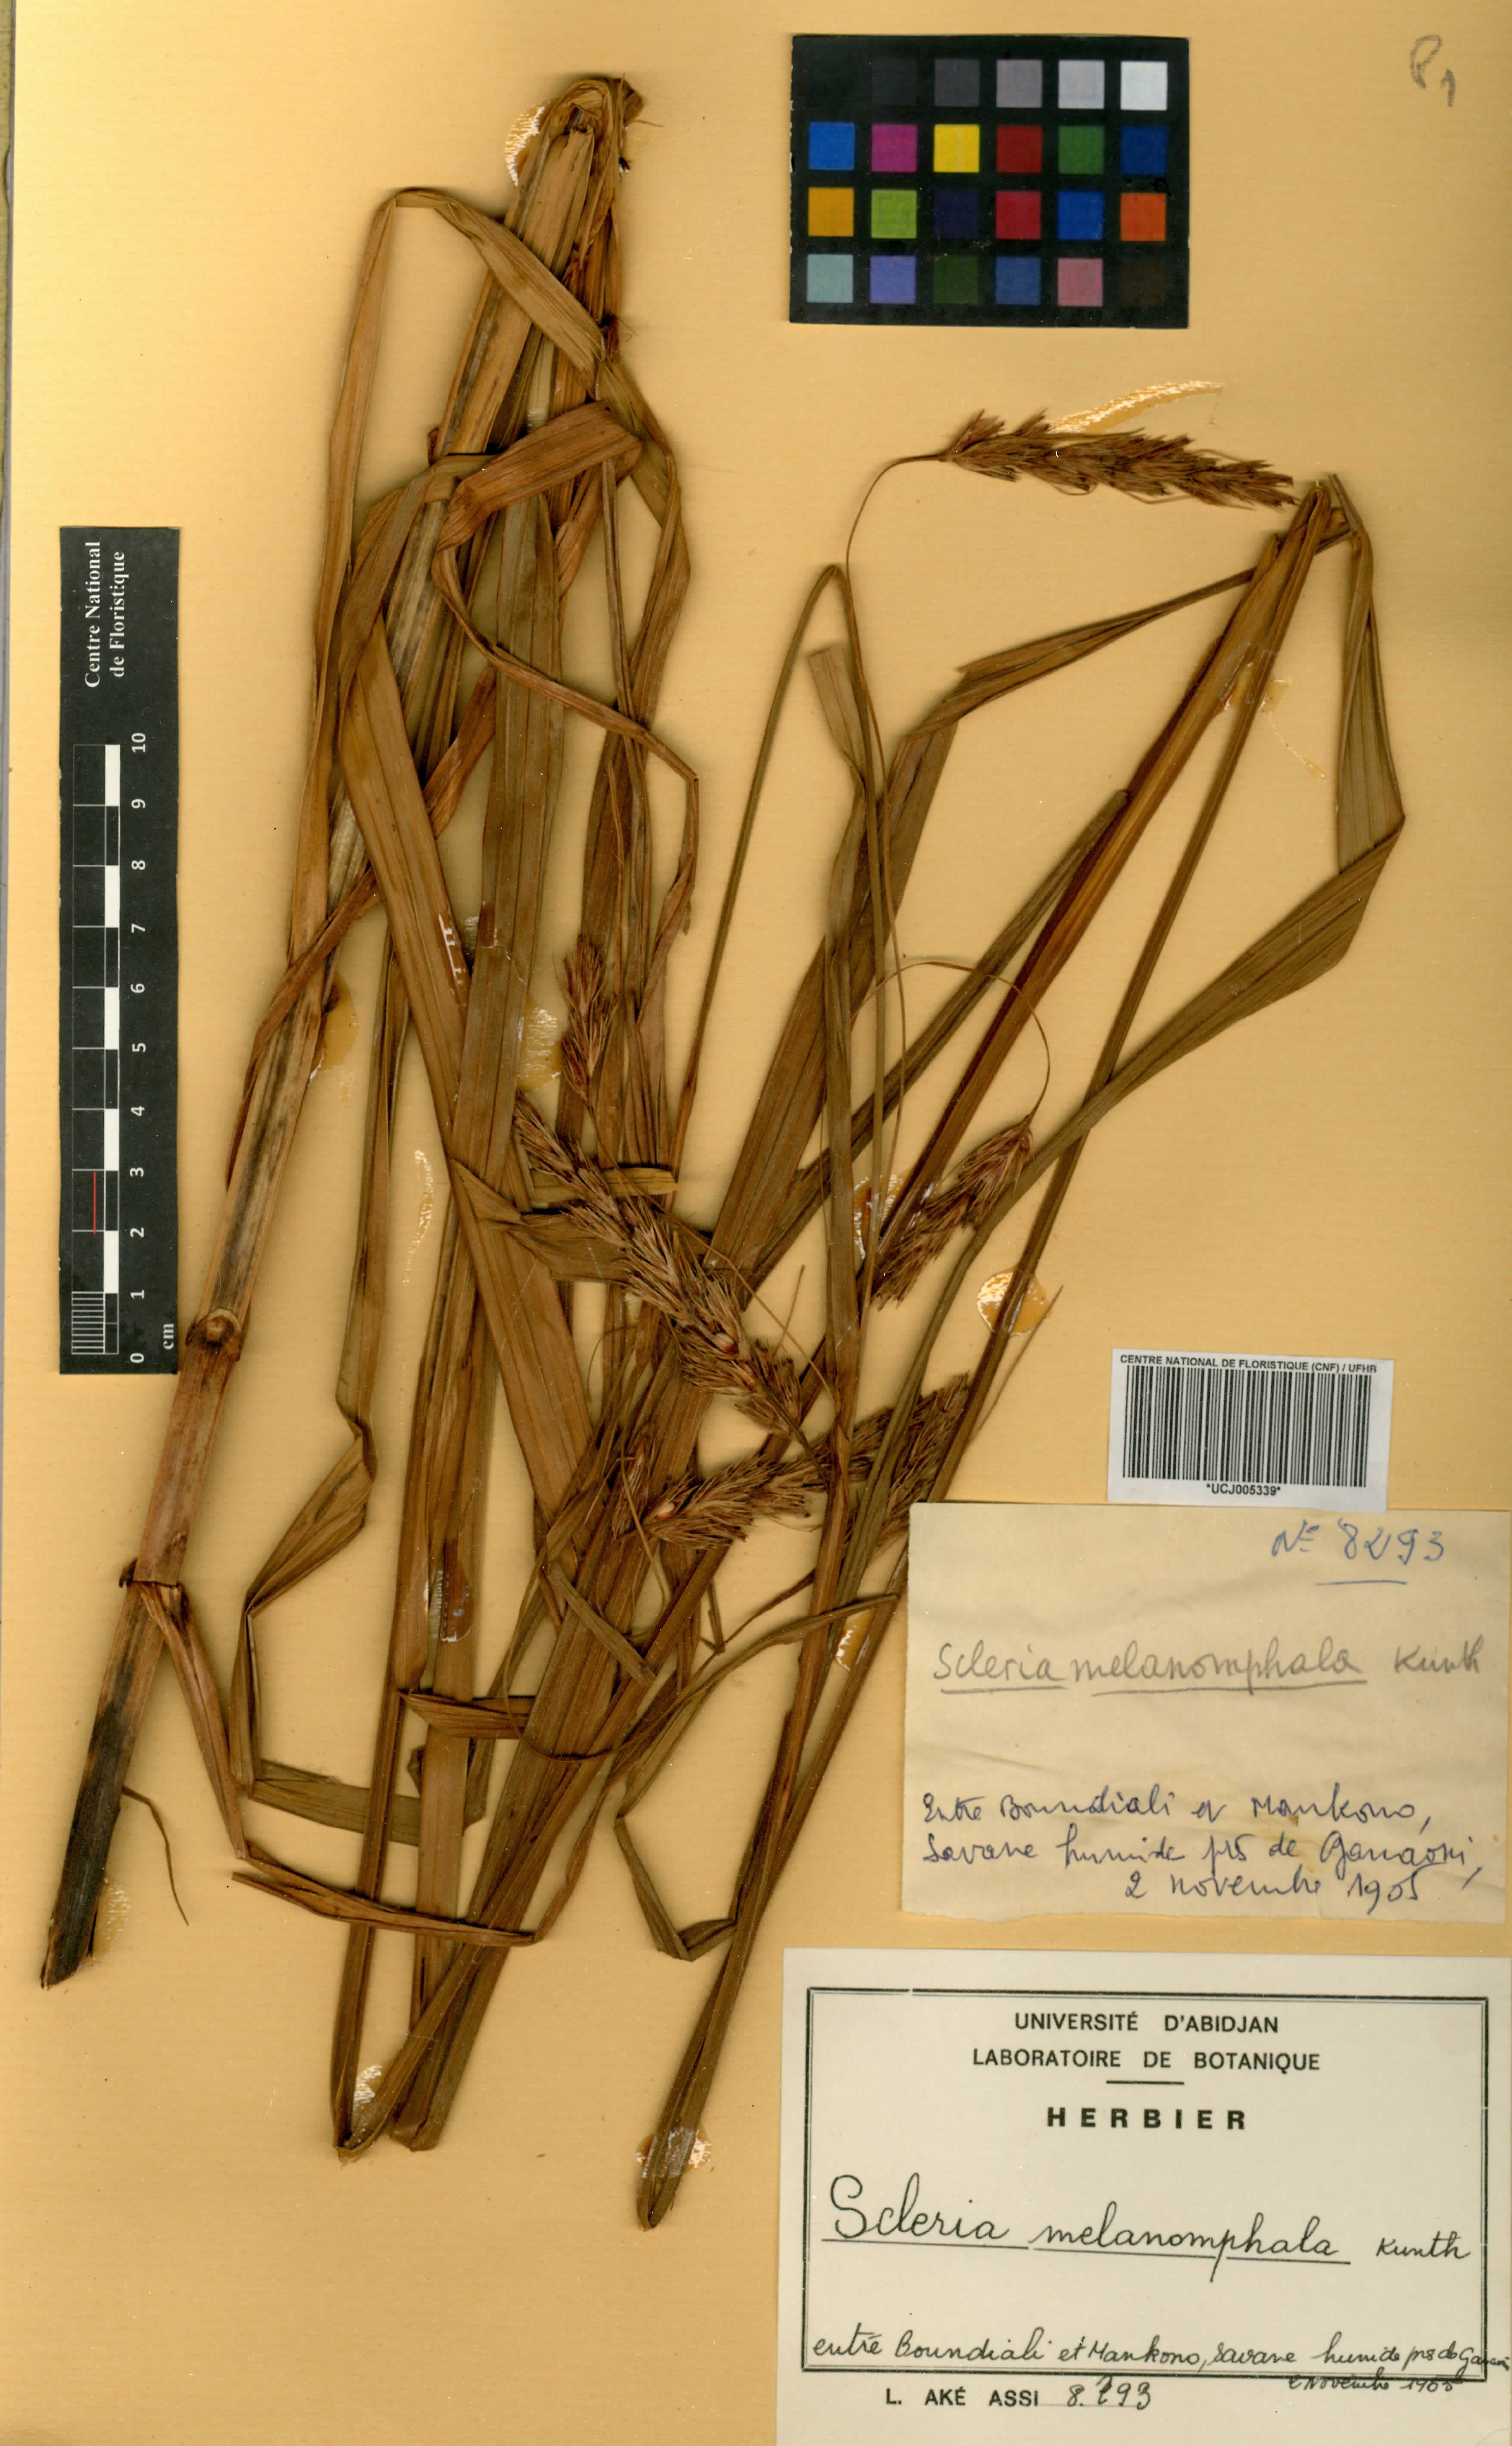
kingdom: Plantae
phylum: Tracheophyta
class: Liliopsida
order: Poales
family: Cyperaceae
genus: Scleria
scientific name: Scleria melanomphala
